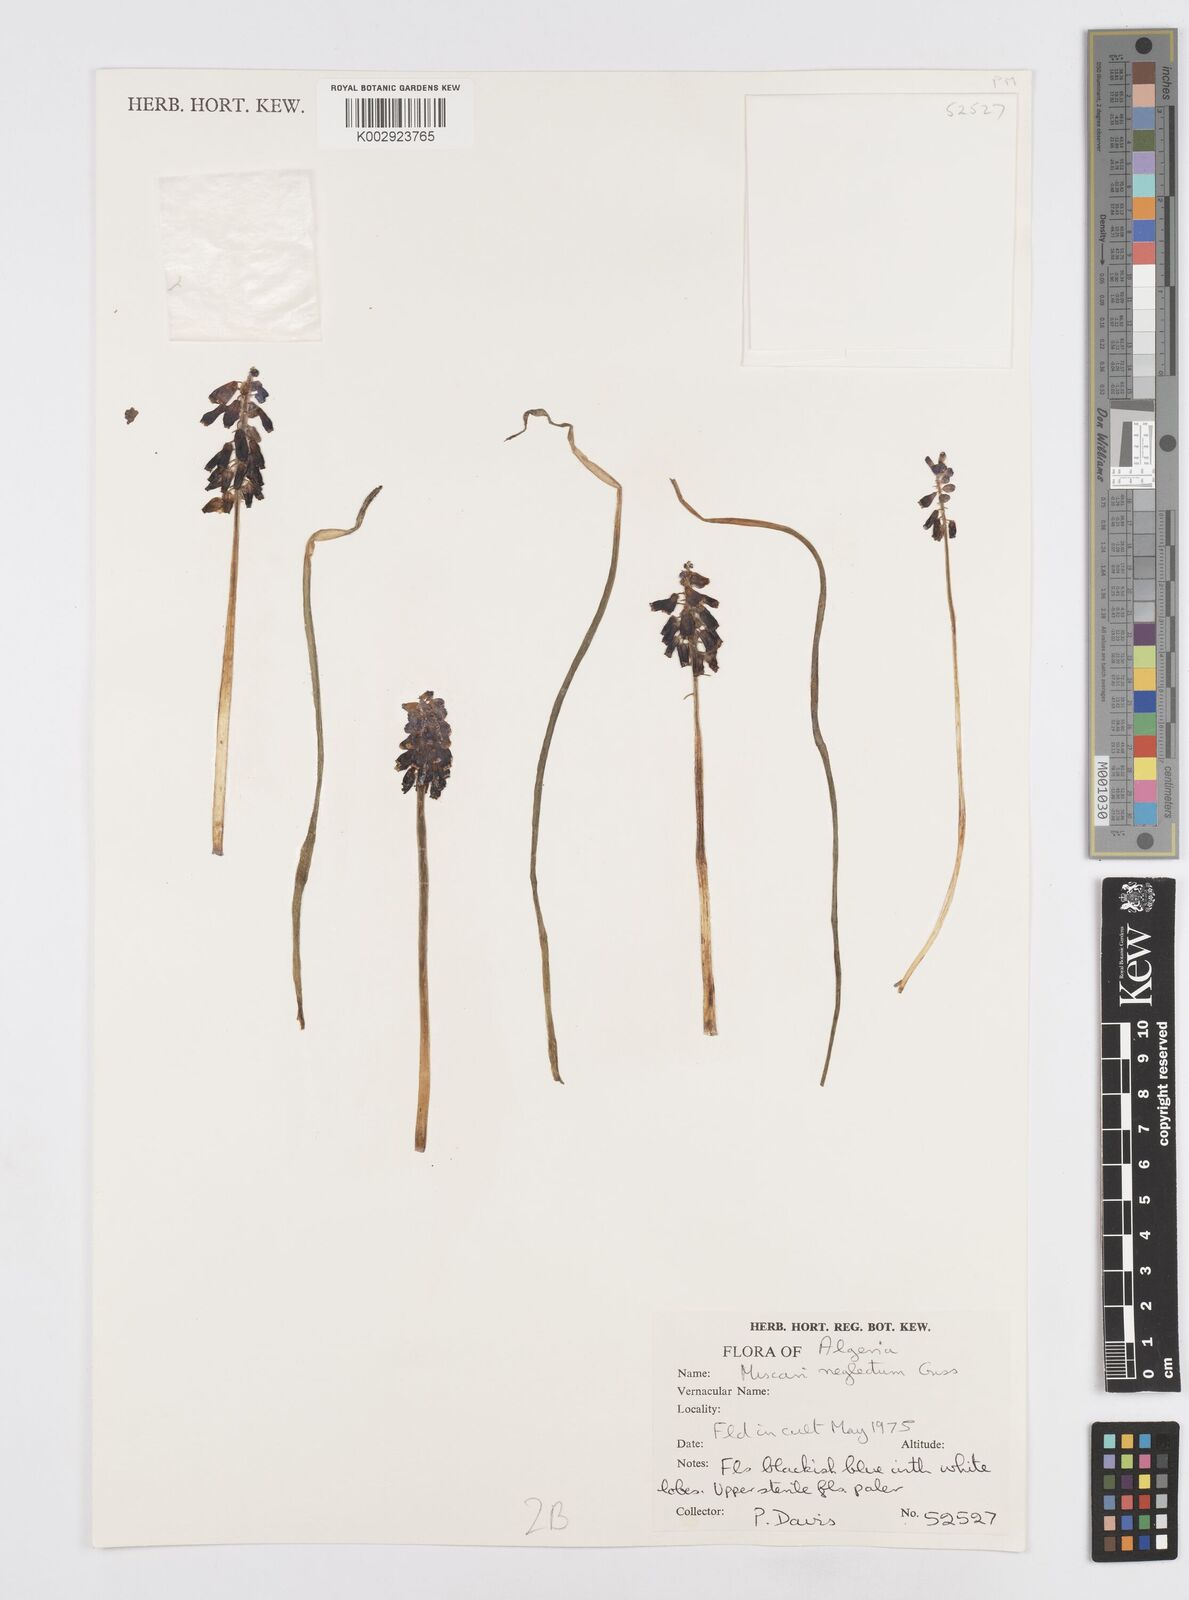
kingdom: Plantae
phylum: Tracheophyta
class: Liliopsida
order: Asparagales
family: Asparagaceae
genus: Muscari
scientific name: Muscari neglectum
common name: Grape-hyacinth
